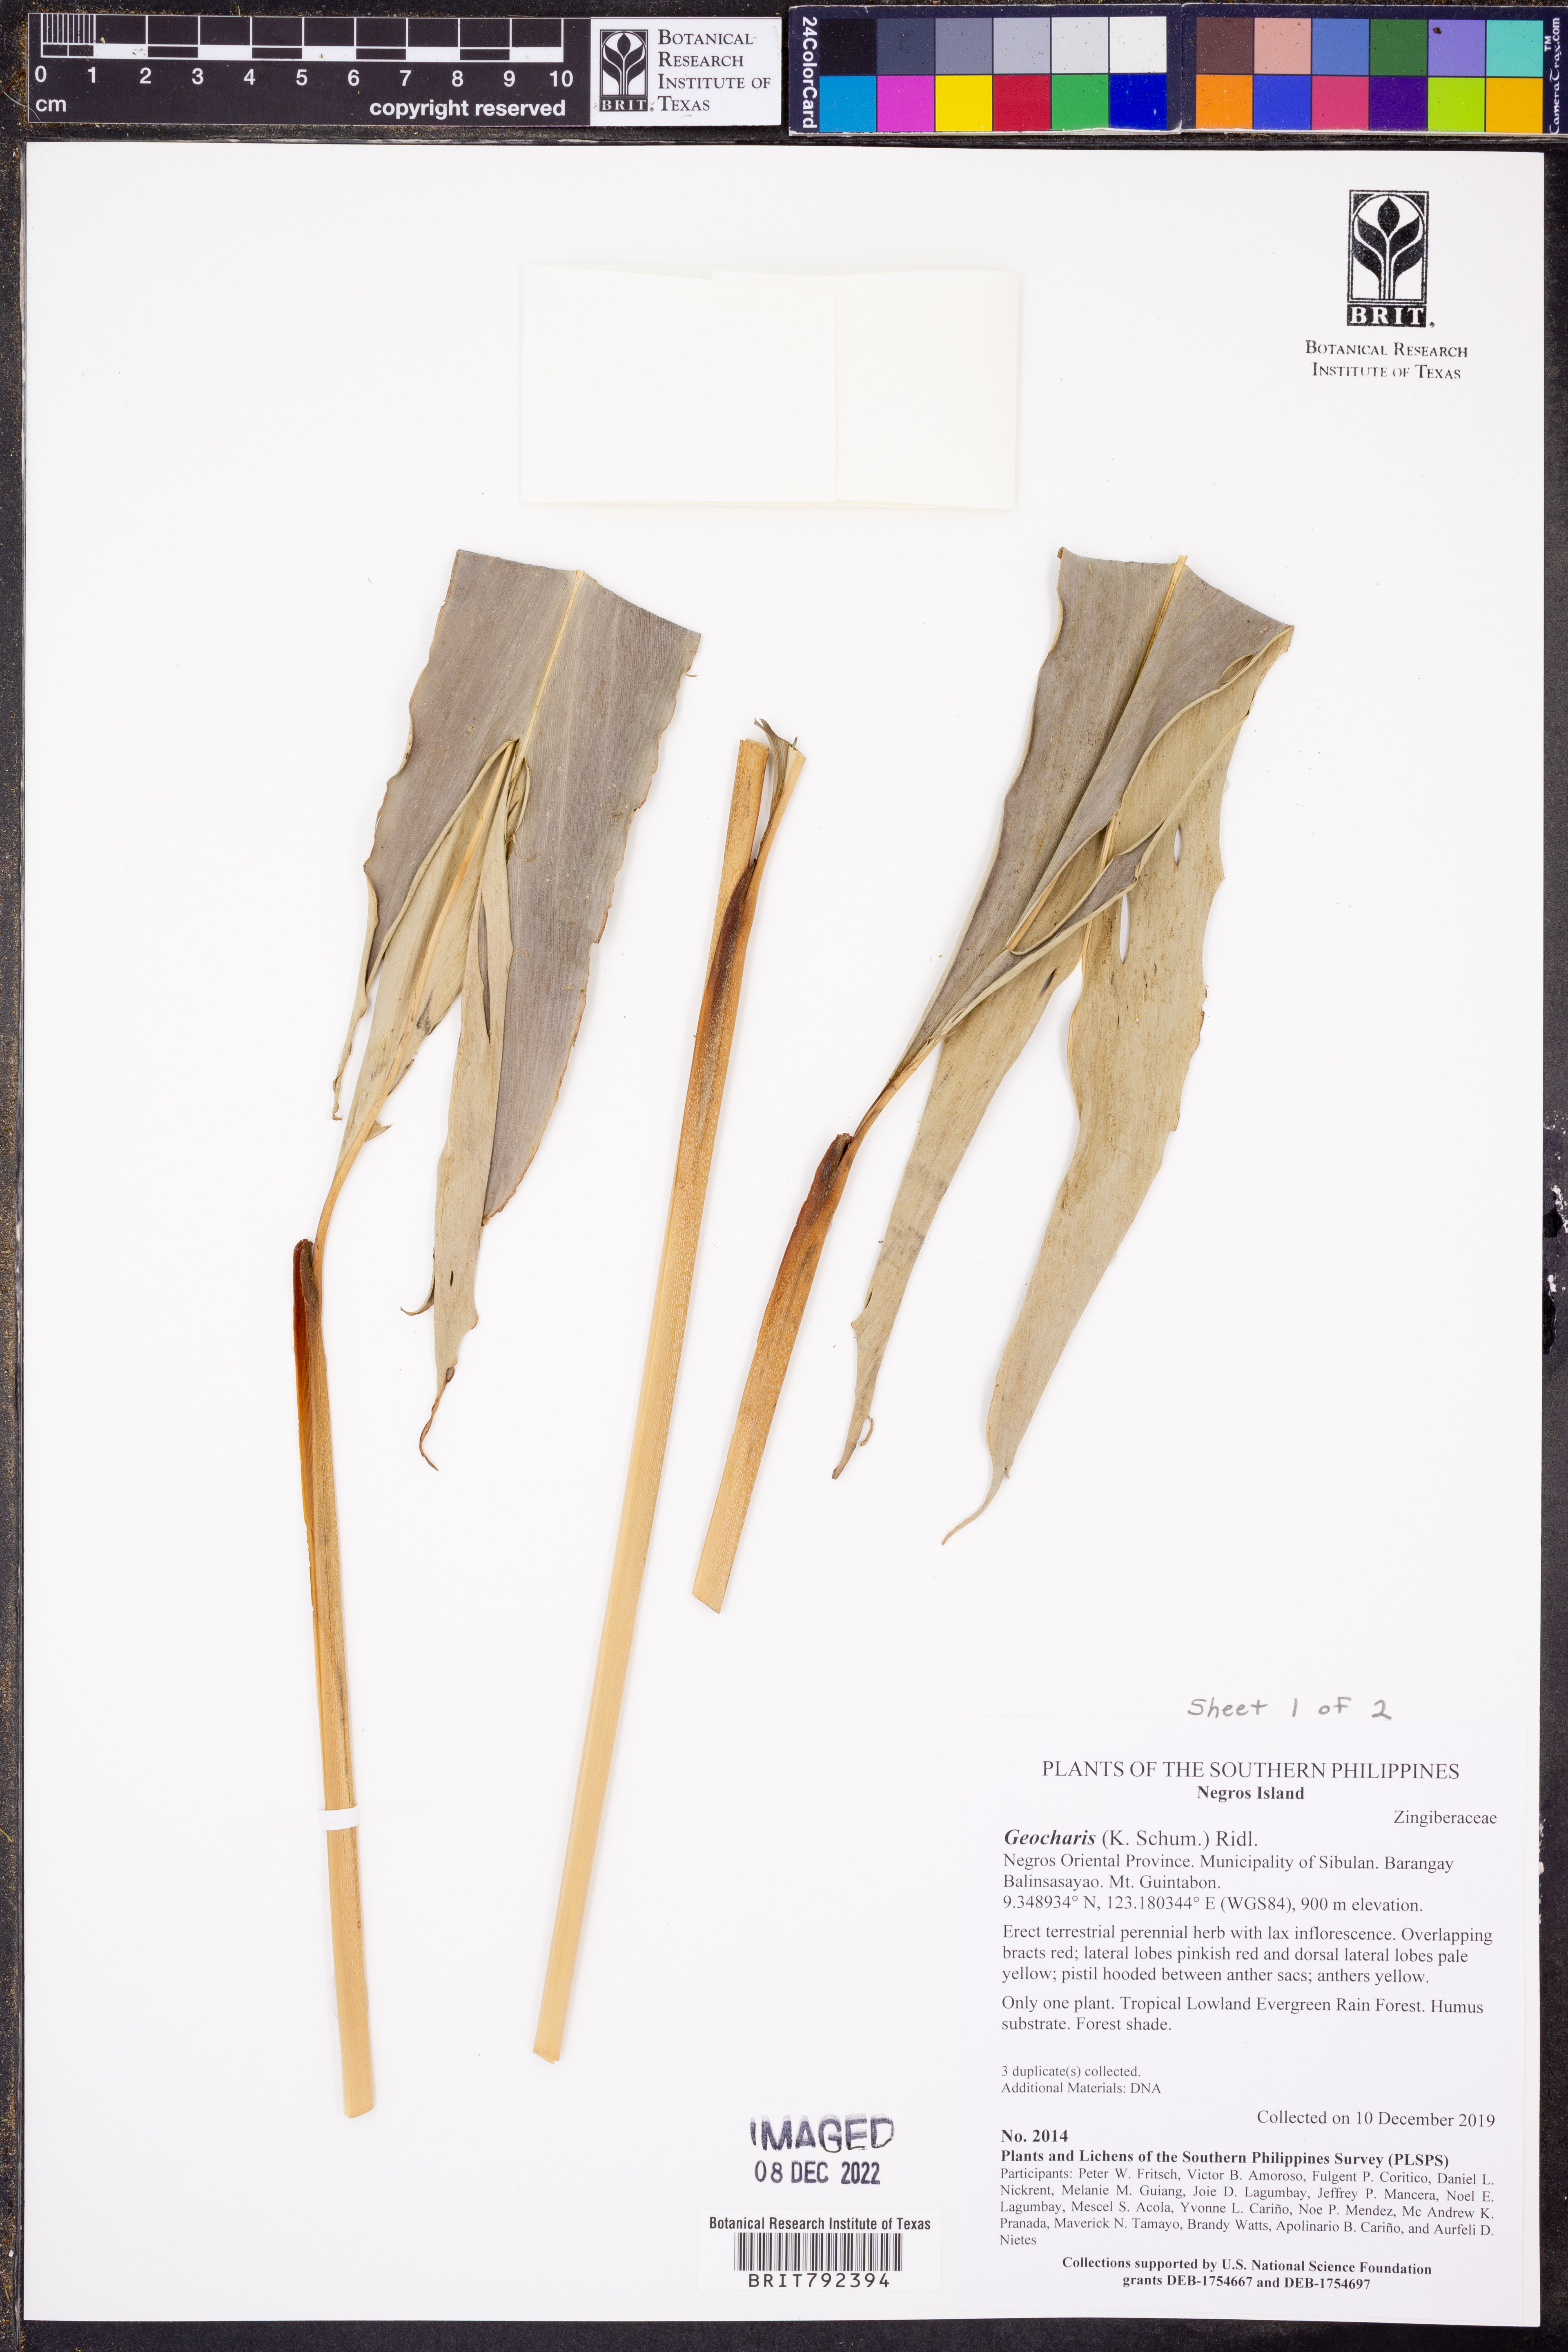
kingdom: Plantae
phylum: Tracheophyta
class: Liliopsida
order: Zingiberales
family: Zingiberaceae
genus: Geocharis
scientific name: Geocharis
